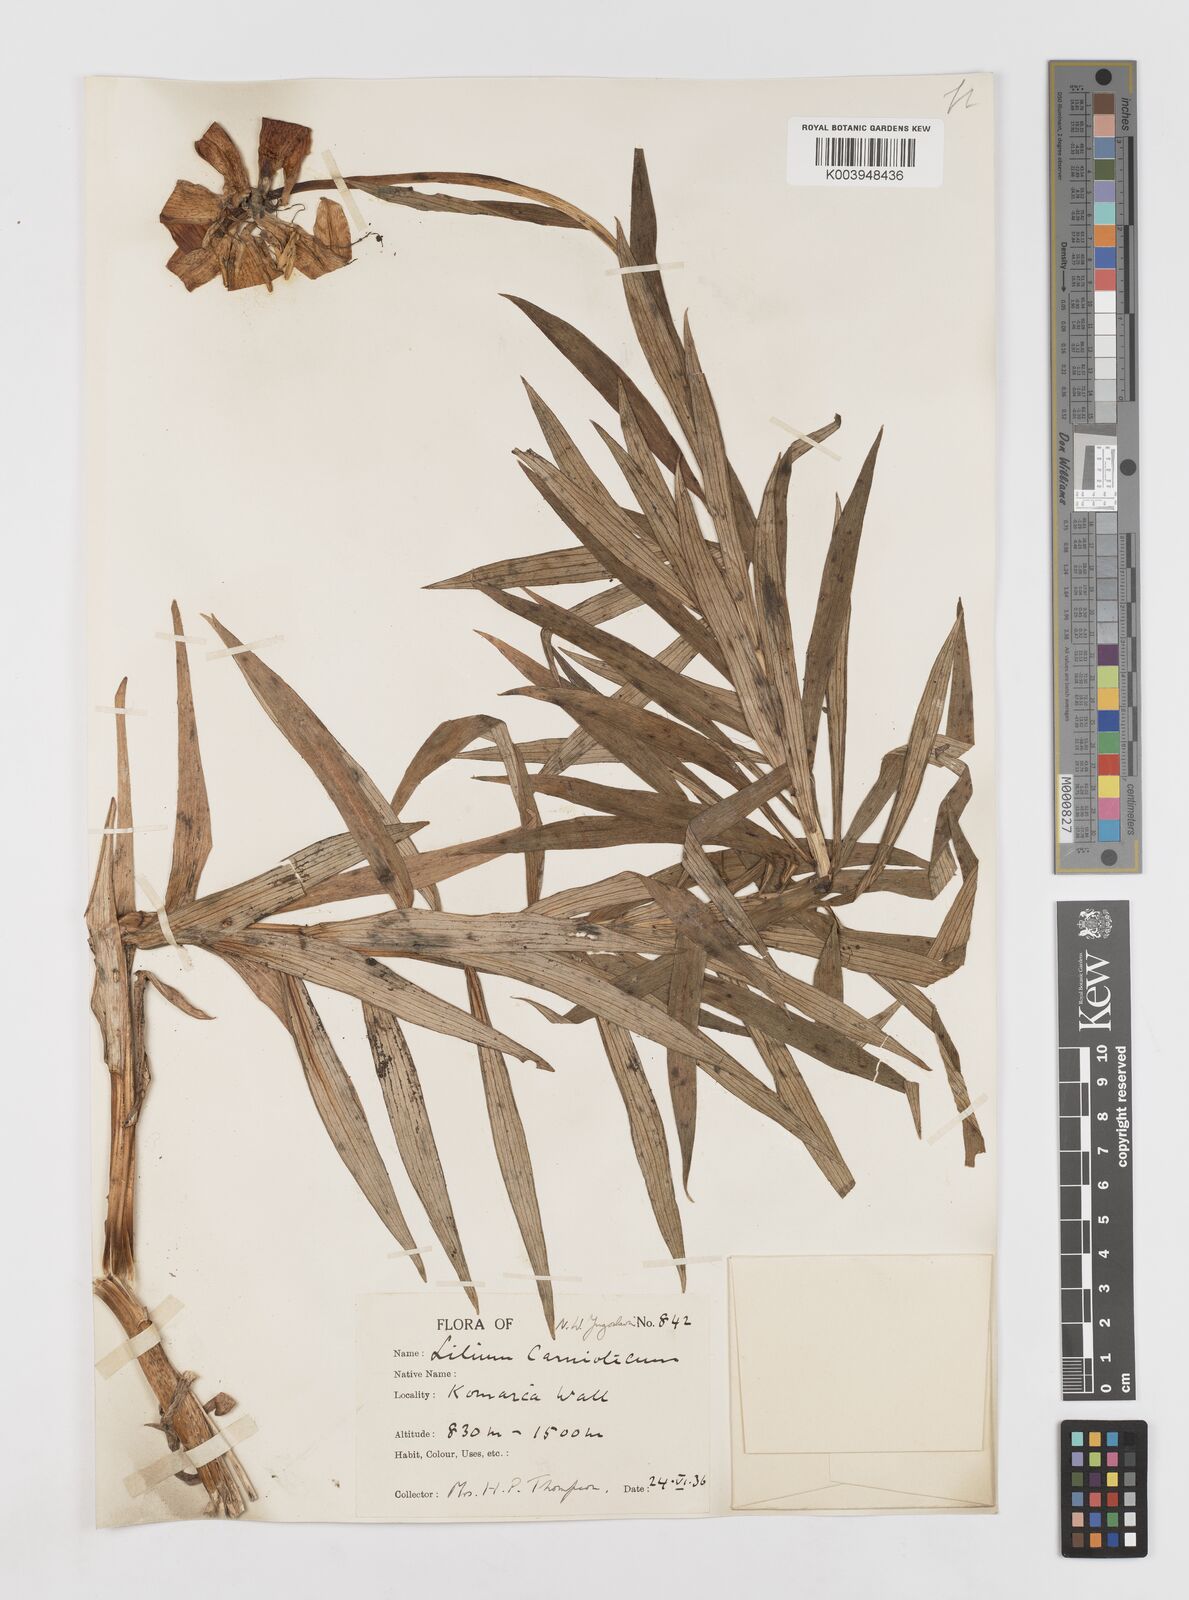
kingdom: Plantae
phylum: Tracheophyta
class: Liliopsida
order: Liliales
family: Liliaceae
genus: Lilium
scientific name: Lilium carniolicum
